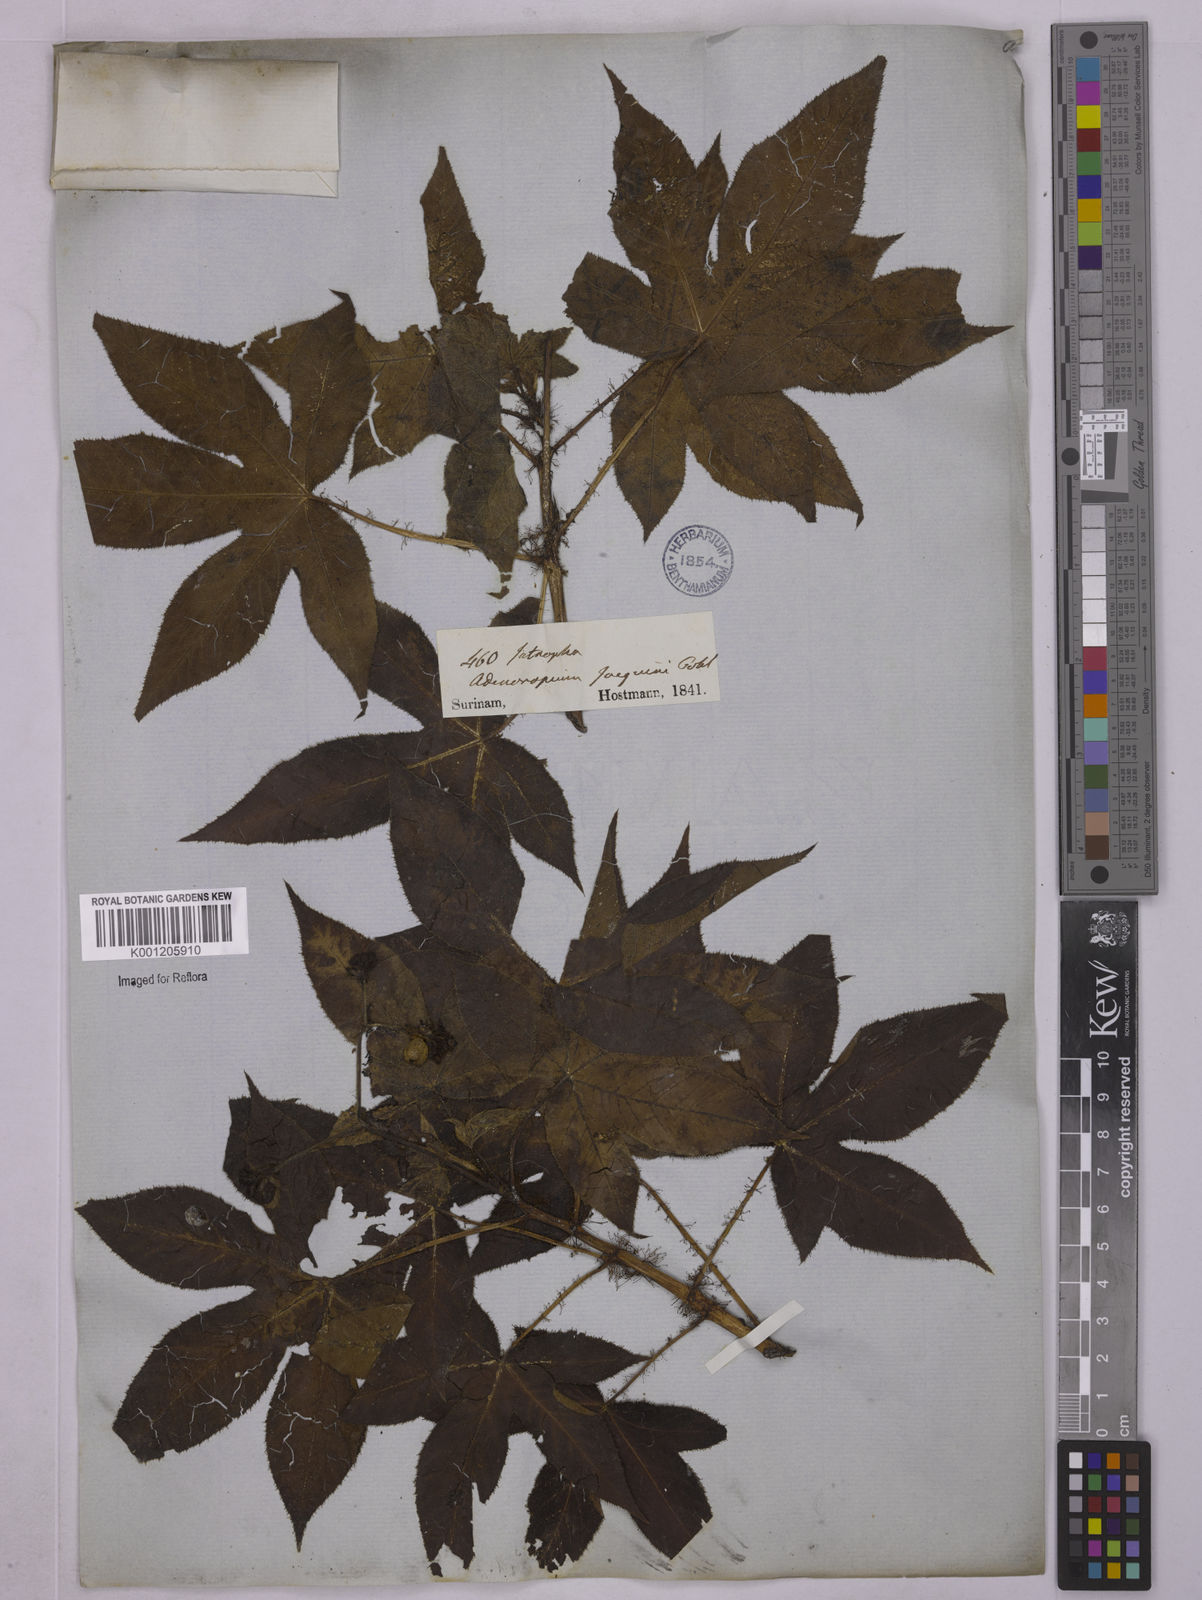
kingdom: Plantae
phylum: Tracheophyta
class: Magnoliopsida
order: Malpighiales
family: Euphorbiaceae
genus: Jatropha
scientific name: Jatropha gossypiifolia
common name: Bellyache bush
